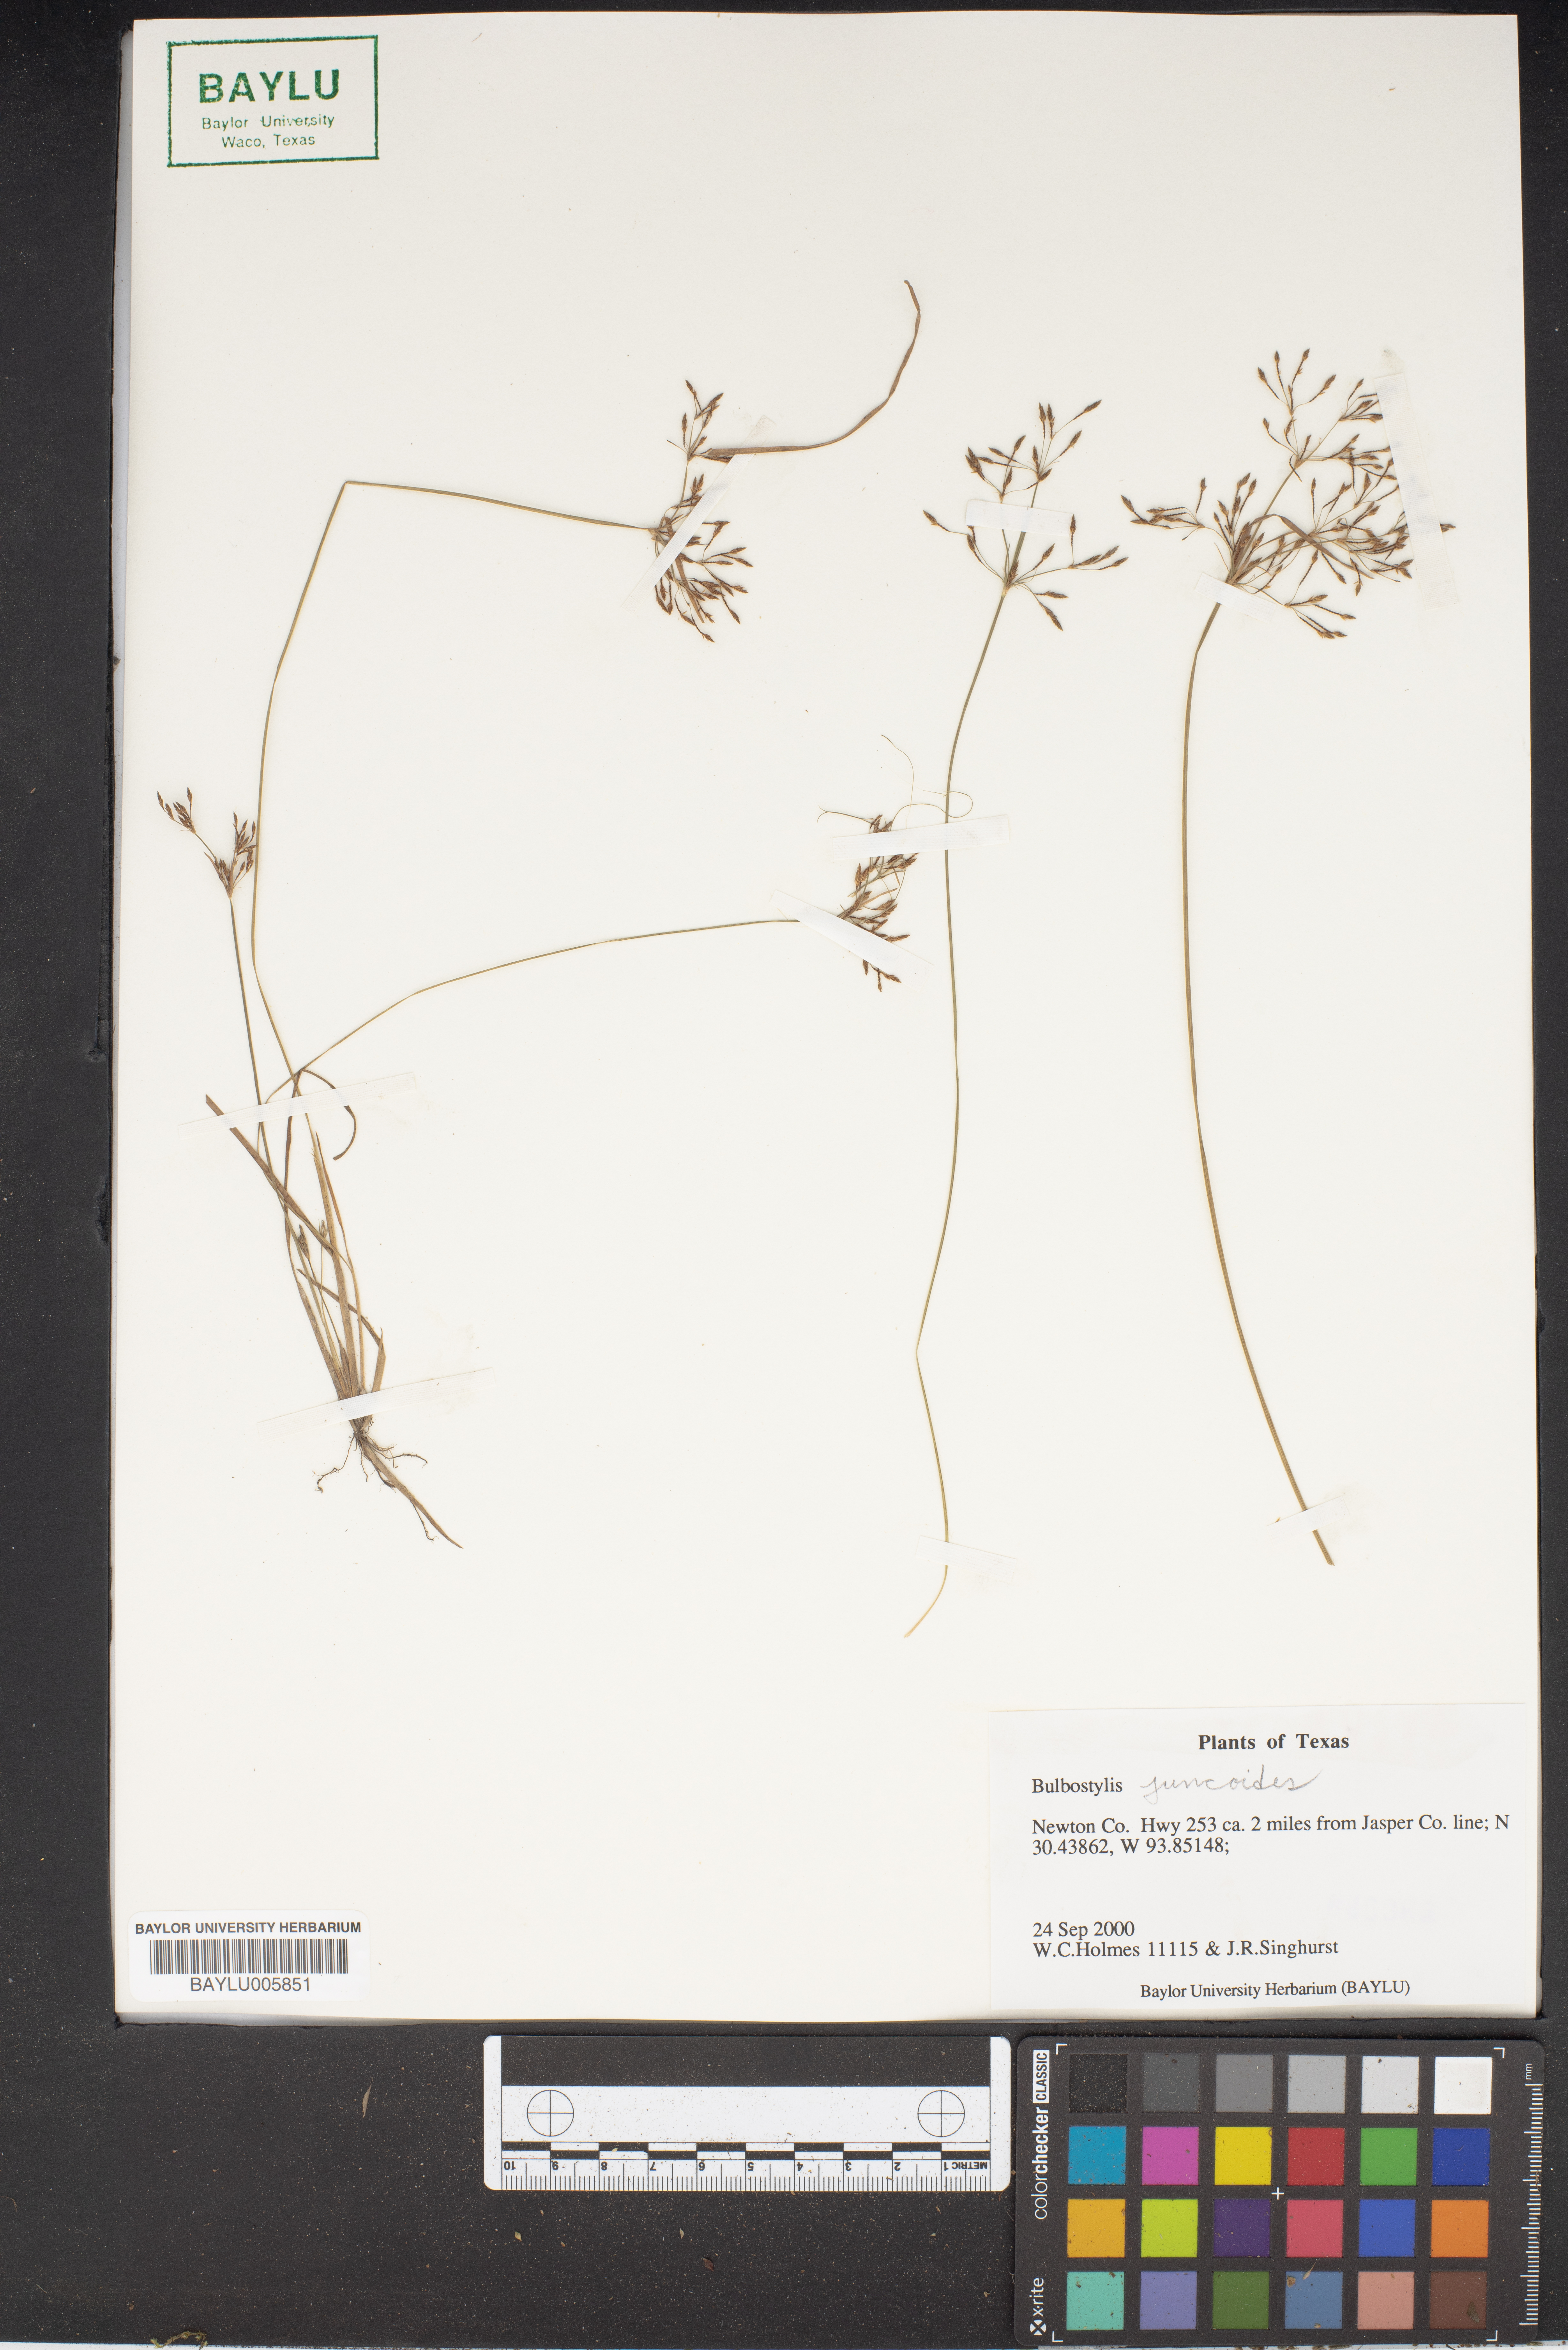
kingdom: Plantae
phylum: Tracheophyta
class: Liliopsida
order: Poales
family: Cyperaceae
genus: Bulbostylis
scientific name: Bulbostylis juncoides
